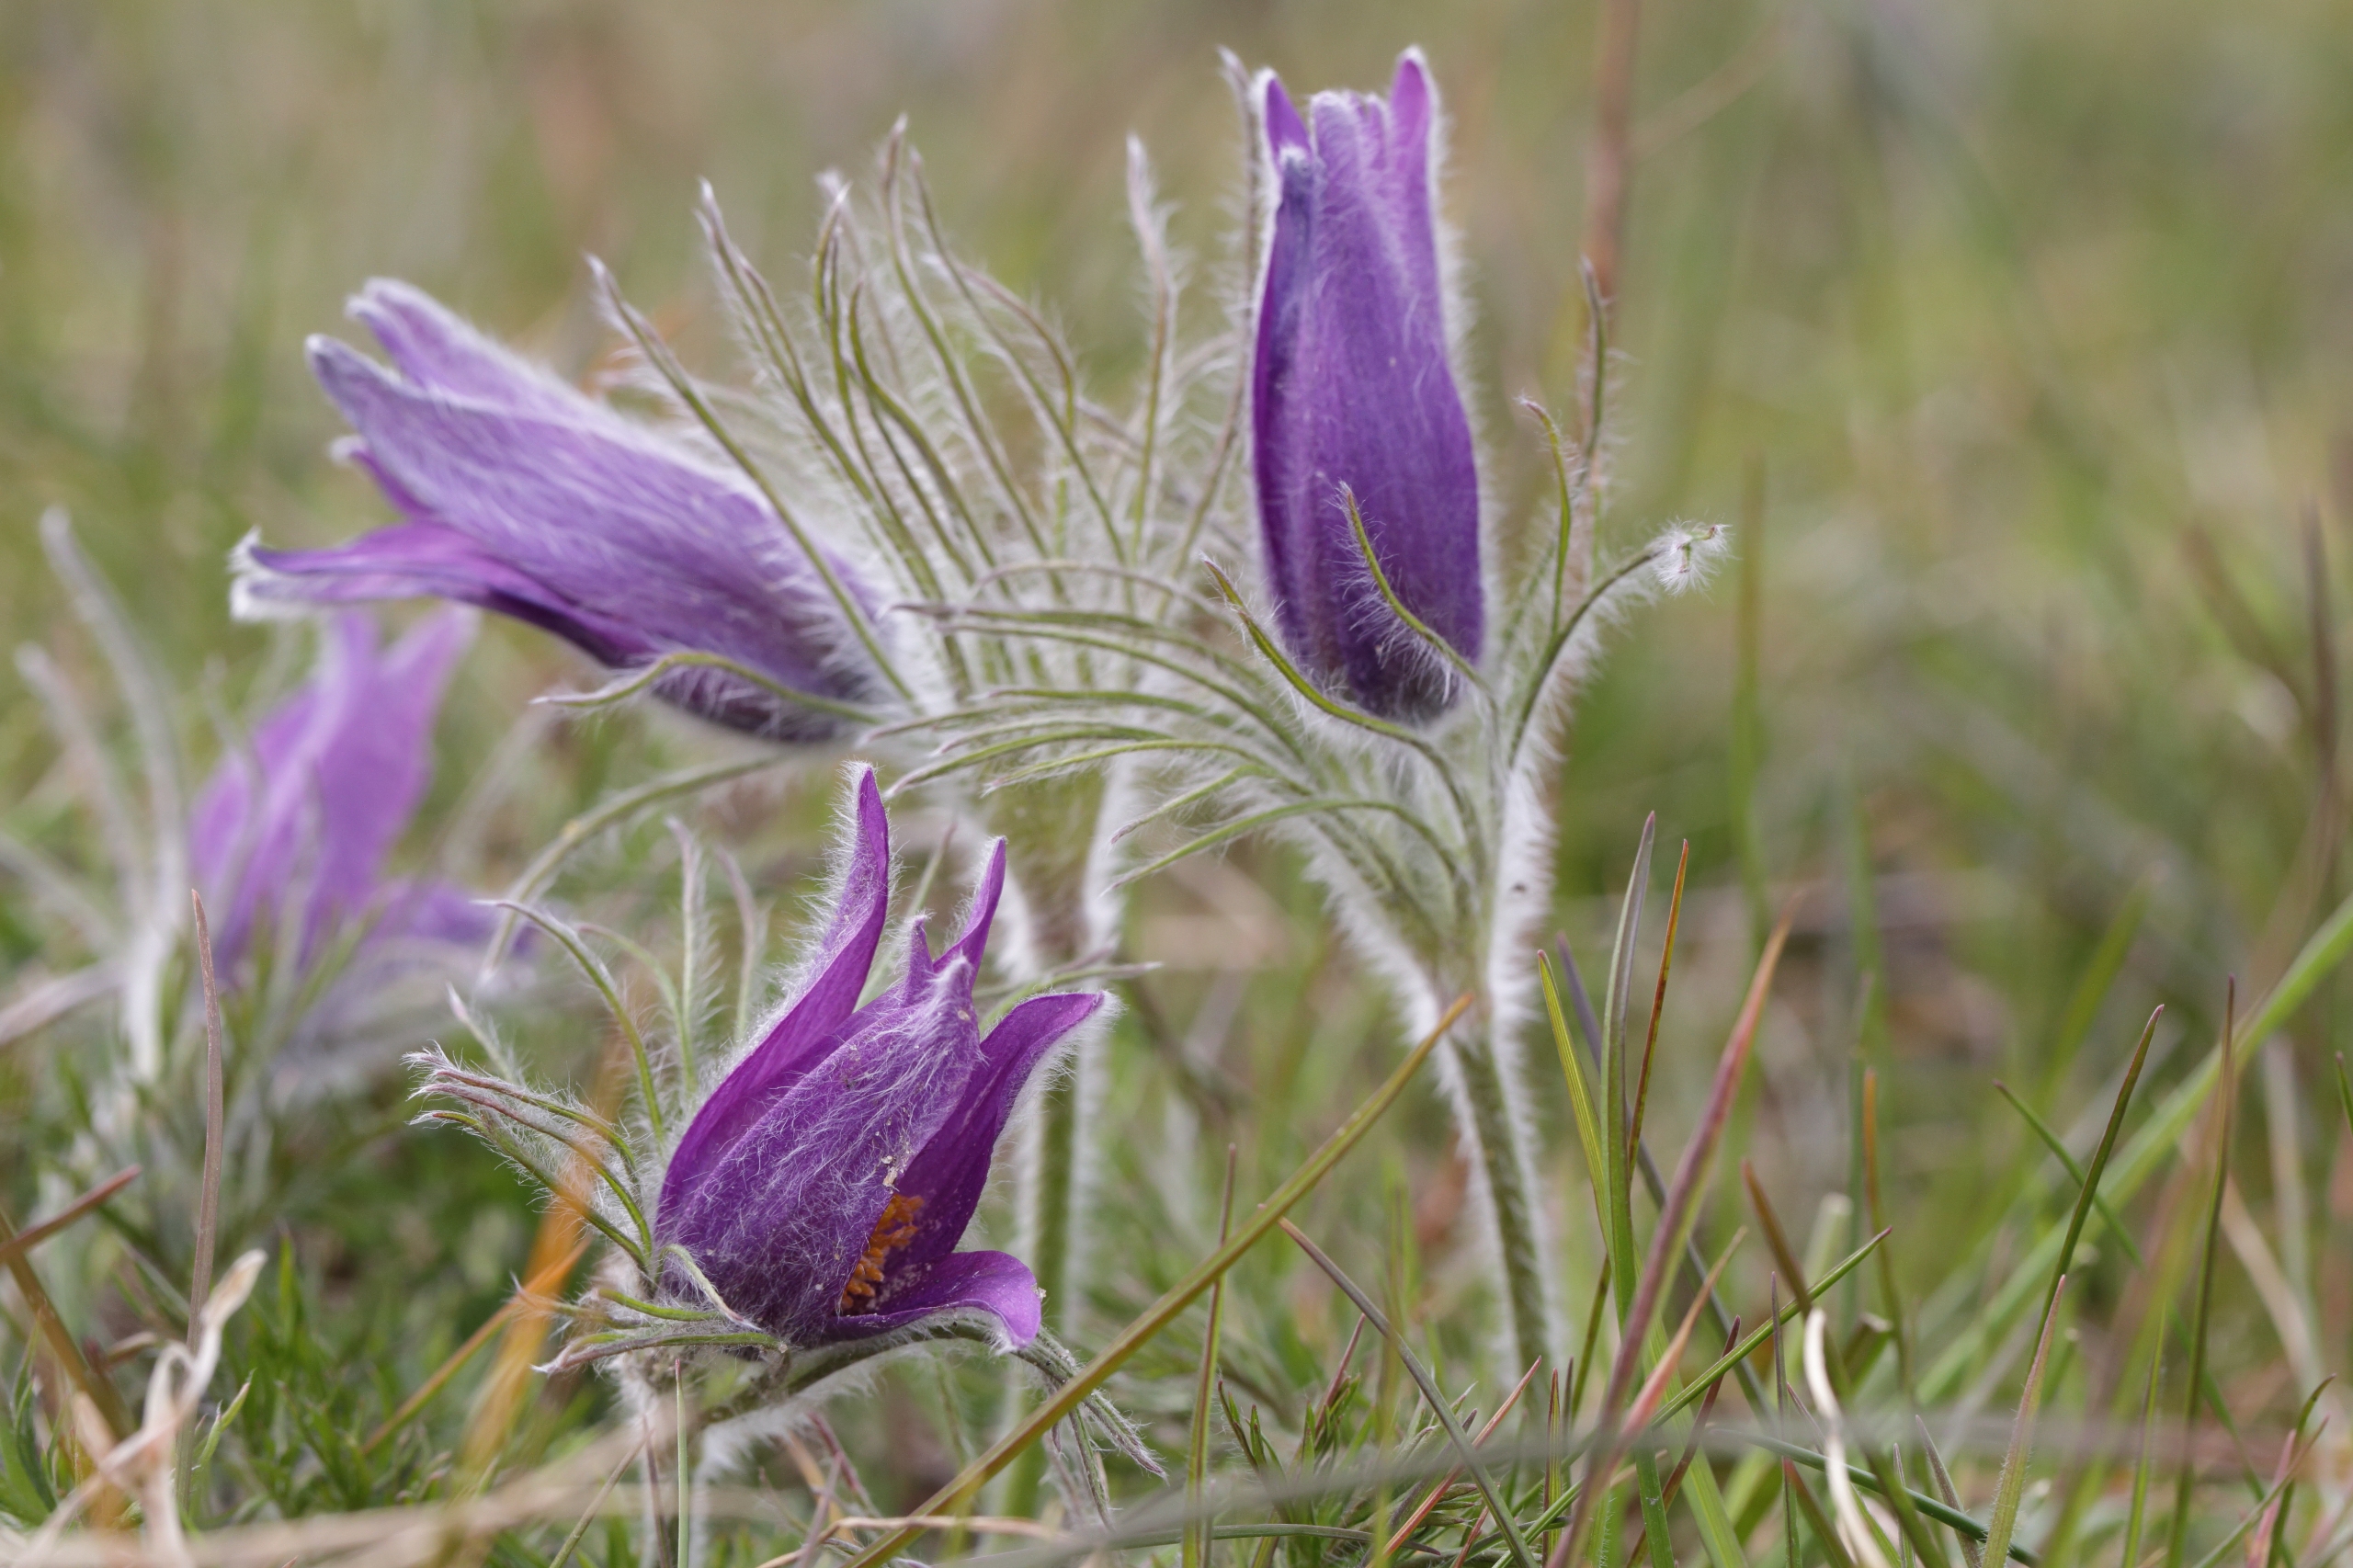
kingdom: Plantae
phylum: Tracheophyta
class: Magnoliopsida
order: Ranunculales
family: Ranunculaceae
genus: Pulsatilla
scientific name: Pulsatilla vulgaris
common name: Opret kobjælde
